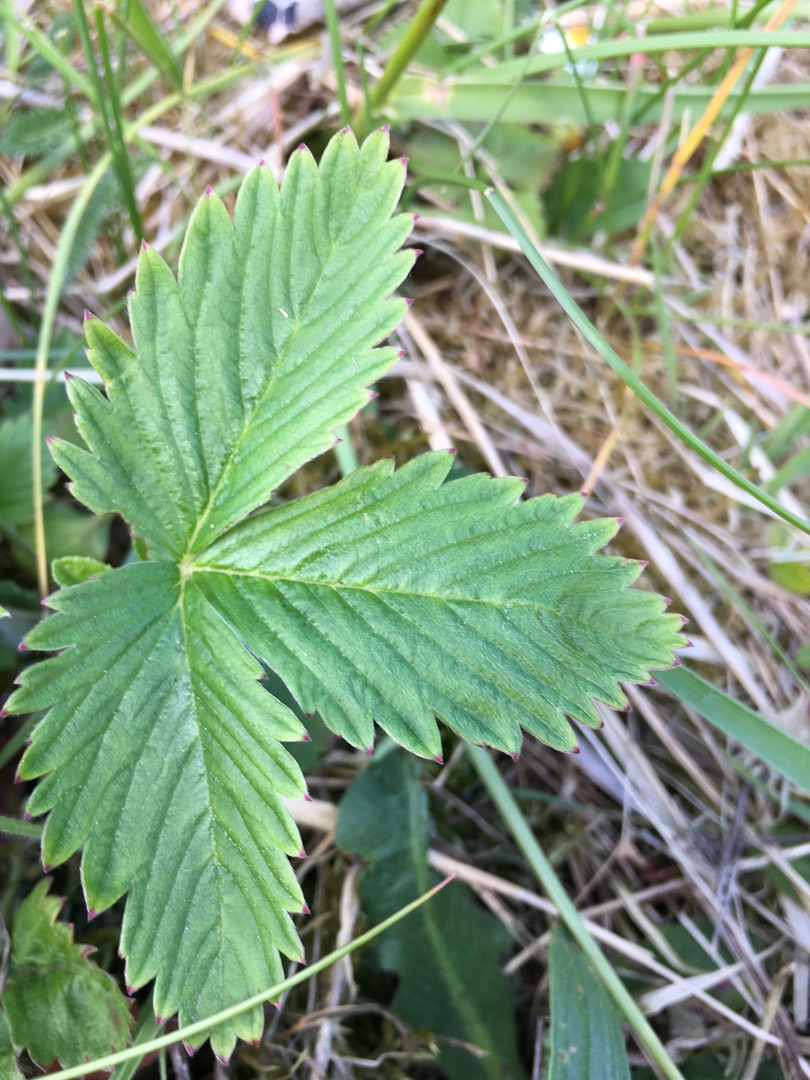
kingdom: Plantae
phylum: Tracheophyta
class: Magnoliopsida
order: Rosales
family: Rosaceae
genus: Fragaria
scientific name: Fragaria vesca
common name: Skov-jordbær
